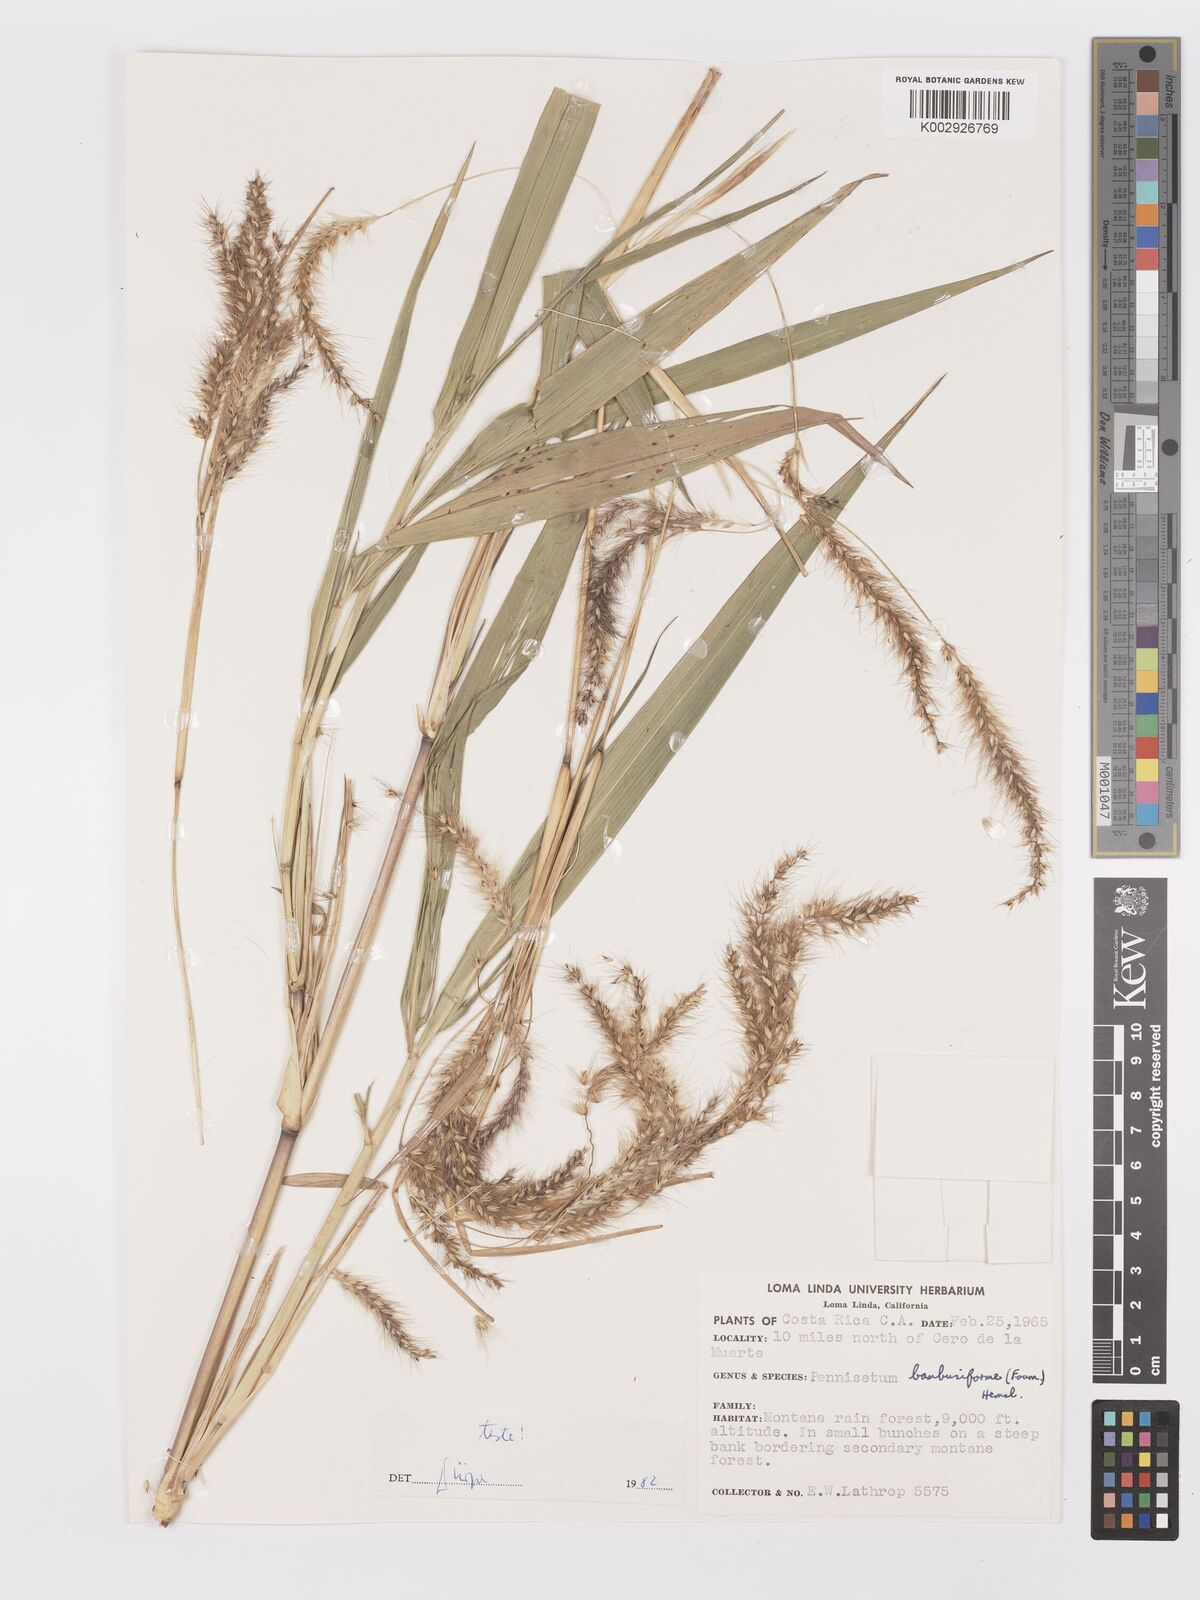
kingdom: Plantae
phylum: Tracheophyta
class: Liliopsida
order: Poales
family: Poaceae
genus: Cenchrus
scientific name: Cenchrus preslii
